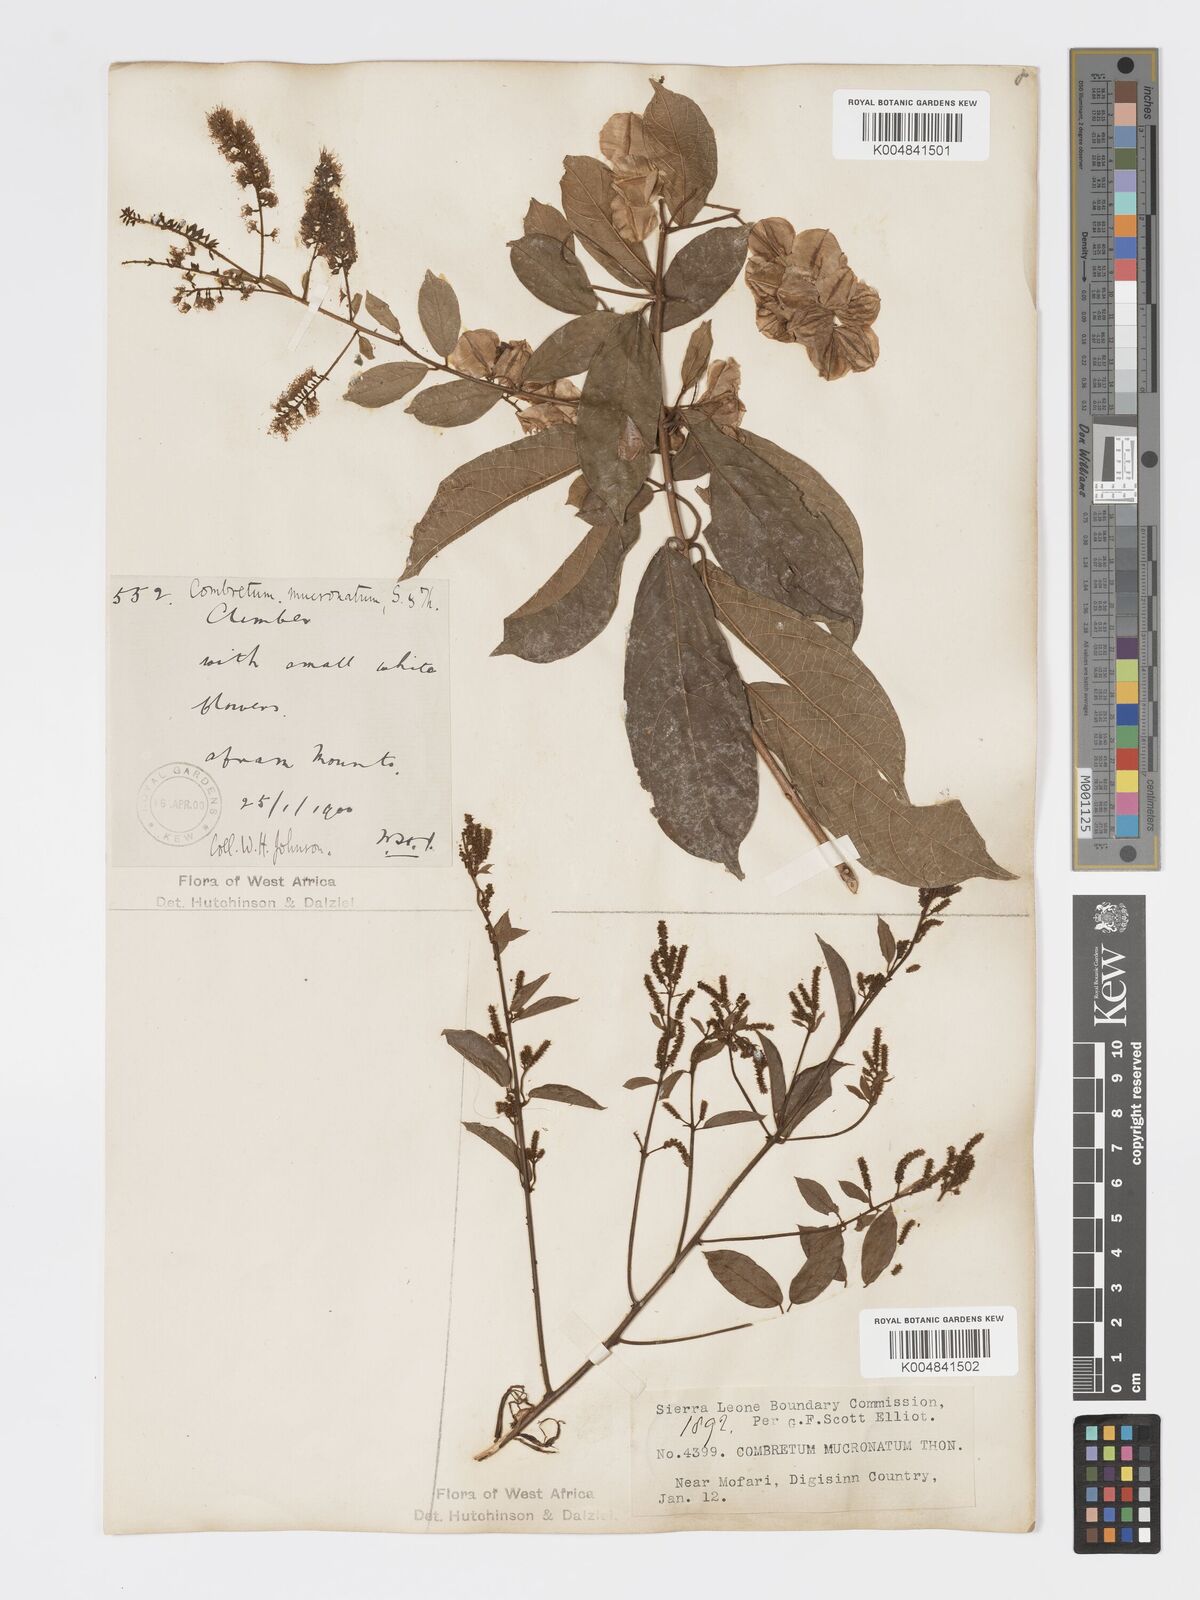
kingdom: Plantae
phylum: Tracheophyta
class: Magnoliopsida
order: Myrtales
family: Combretaceae
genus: Combretum
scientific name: Combretum mucronatum
